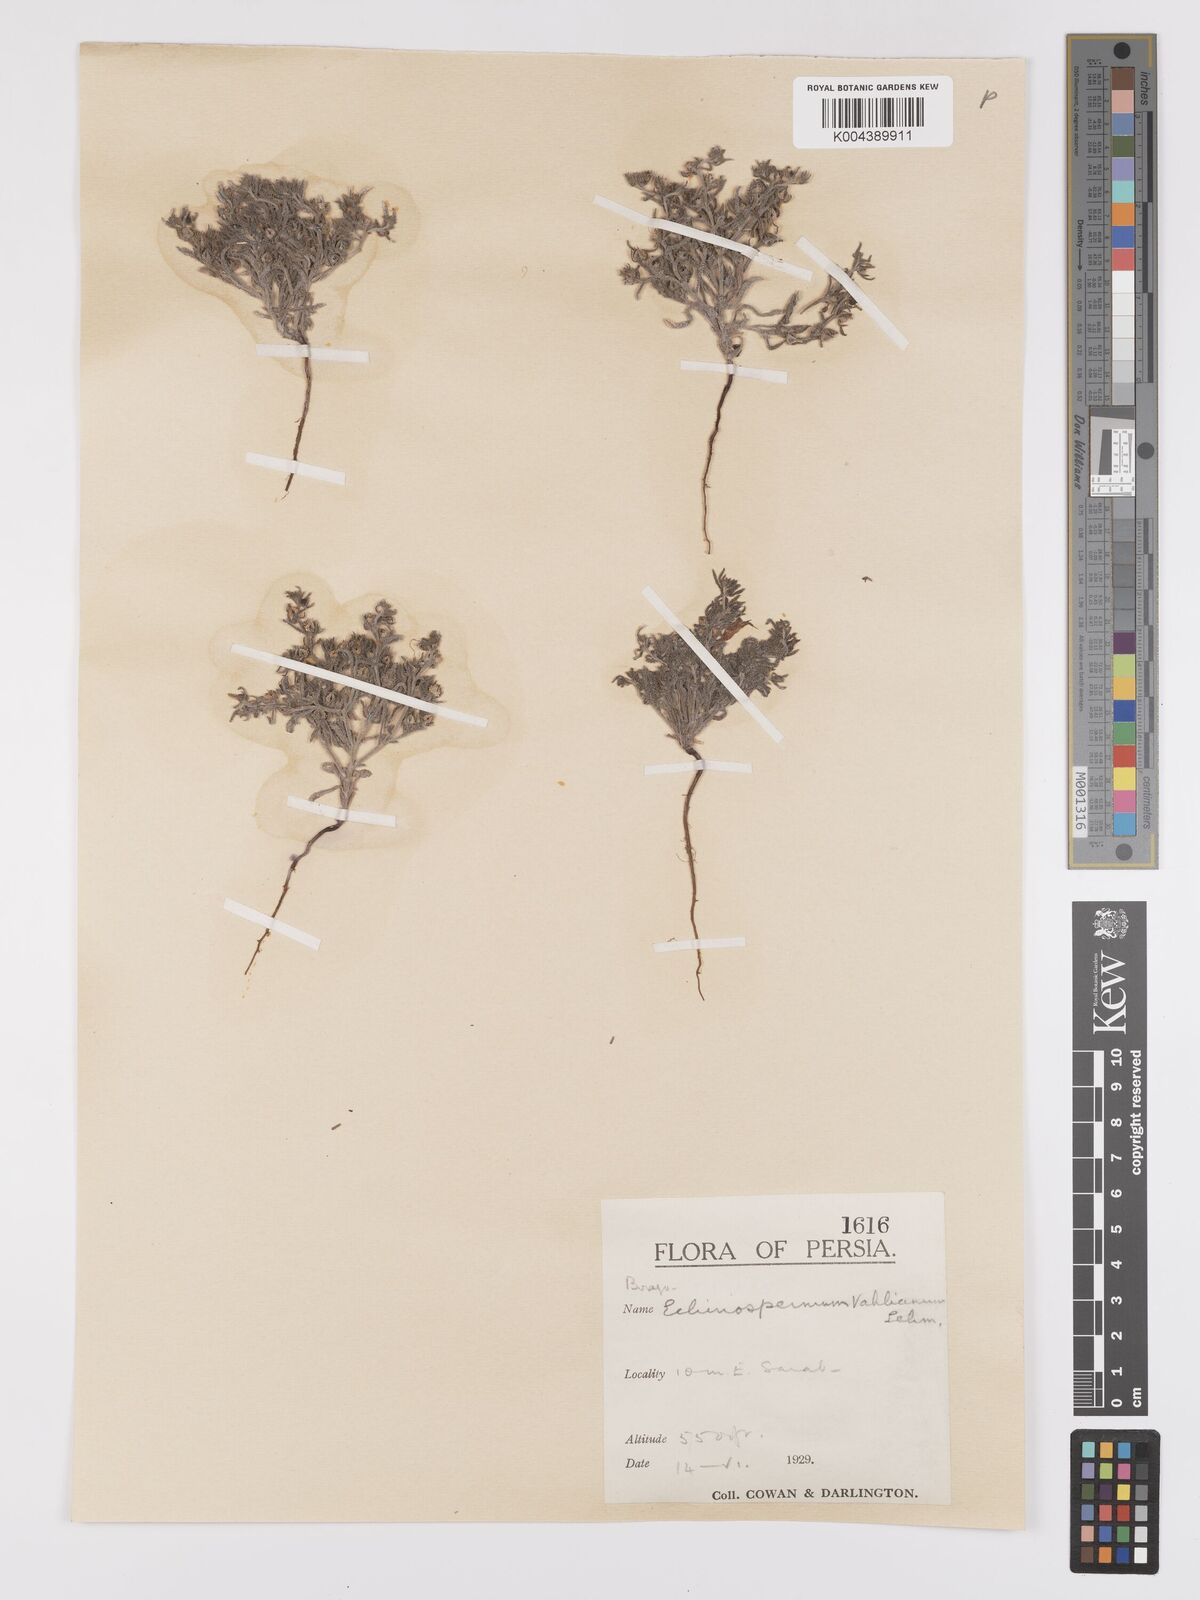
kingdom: Plantae
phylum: Tracheophyta
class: Magnoliopsida
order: Boraginales
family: Boraginaceae
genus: Lappula
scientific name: Lappula spinocarpos
